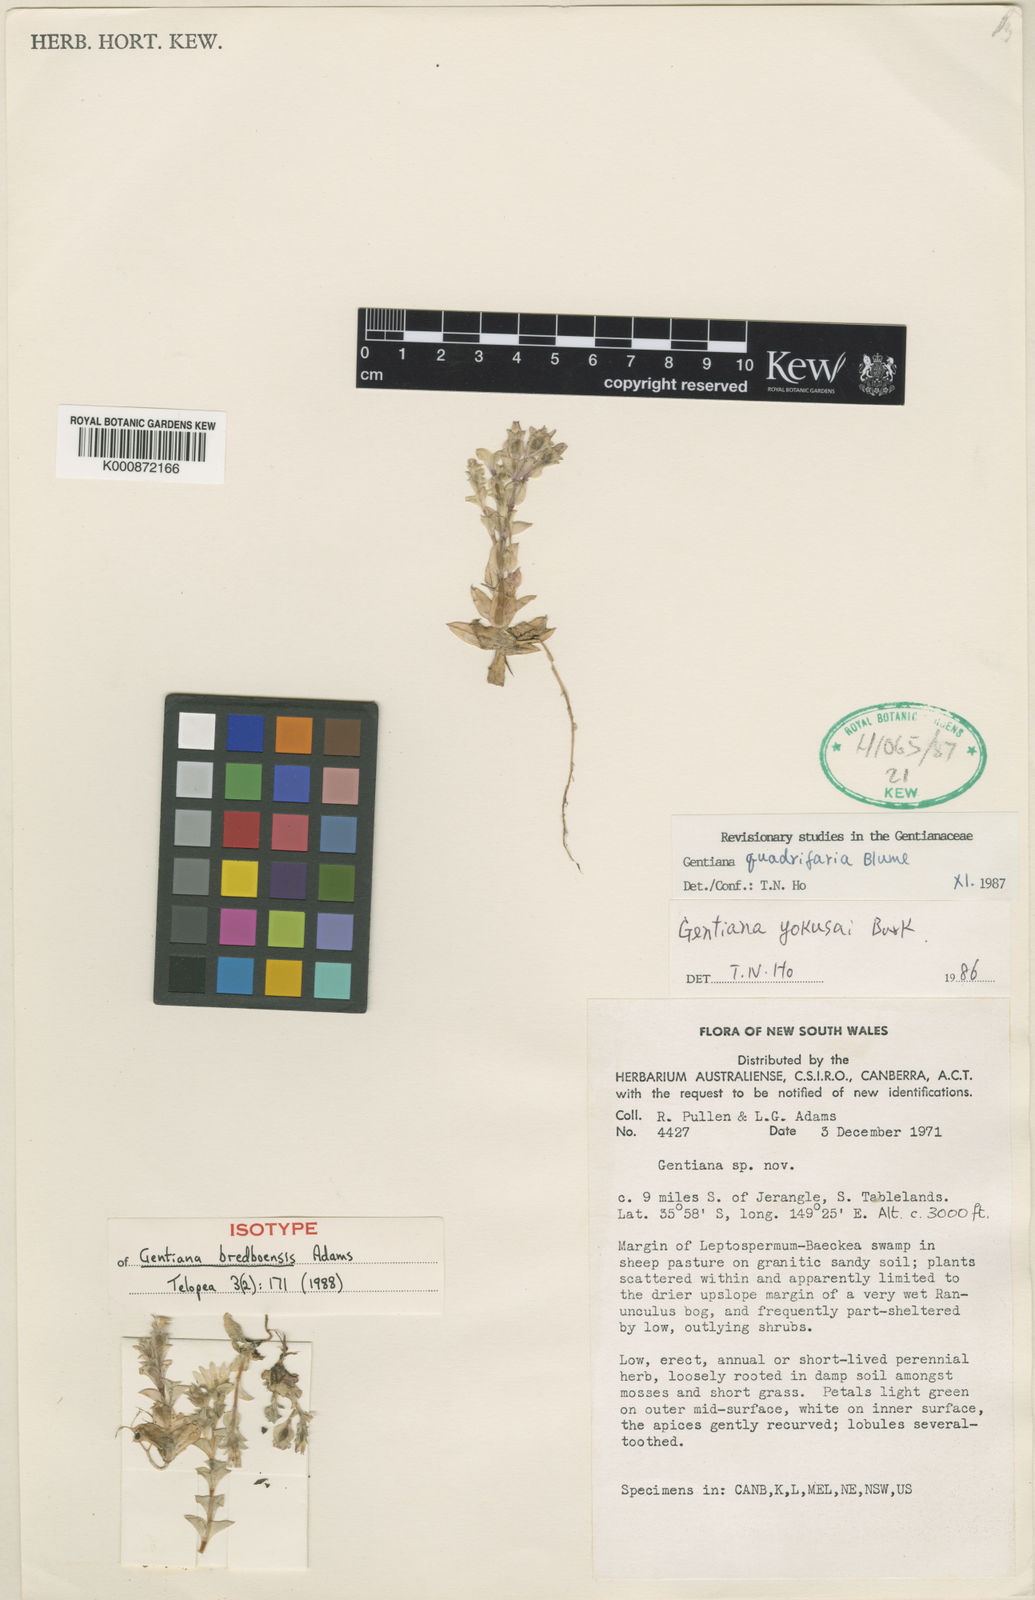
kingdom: Plantae
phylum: Tracheophyta
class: Magnoliopsida
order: Gentianales
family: Gentianaceae
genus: Gentiana
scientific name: Gentiana baeuerlenii
